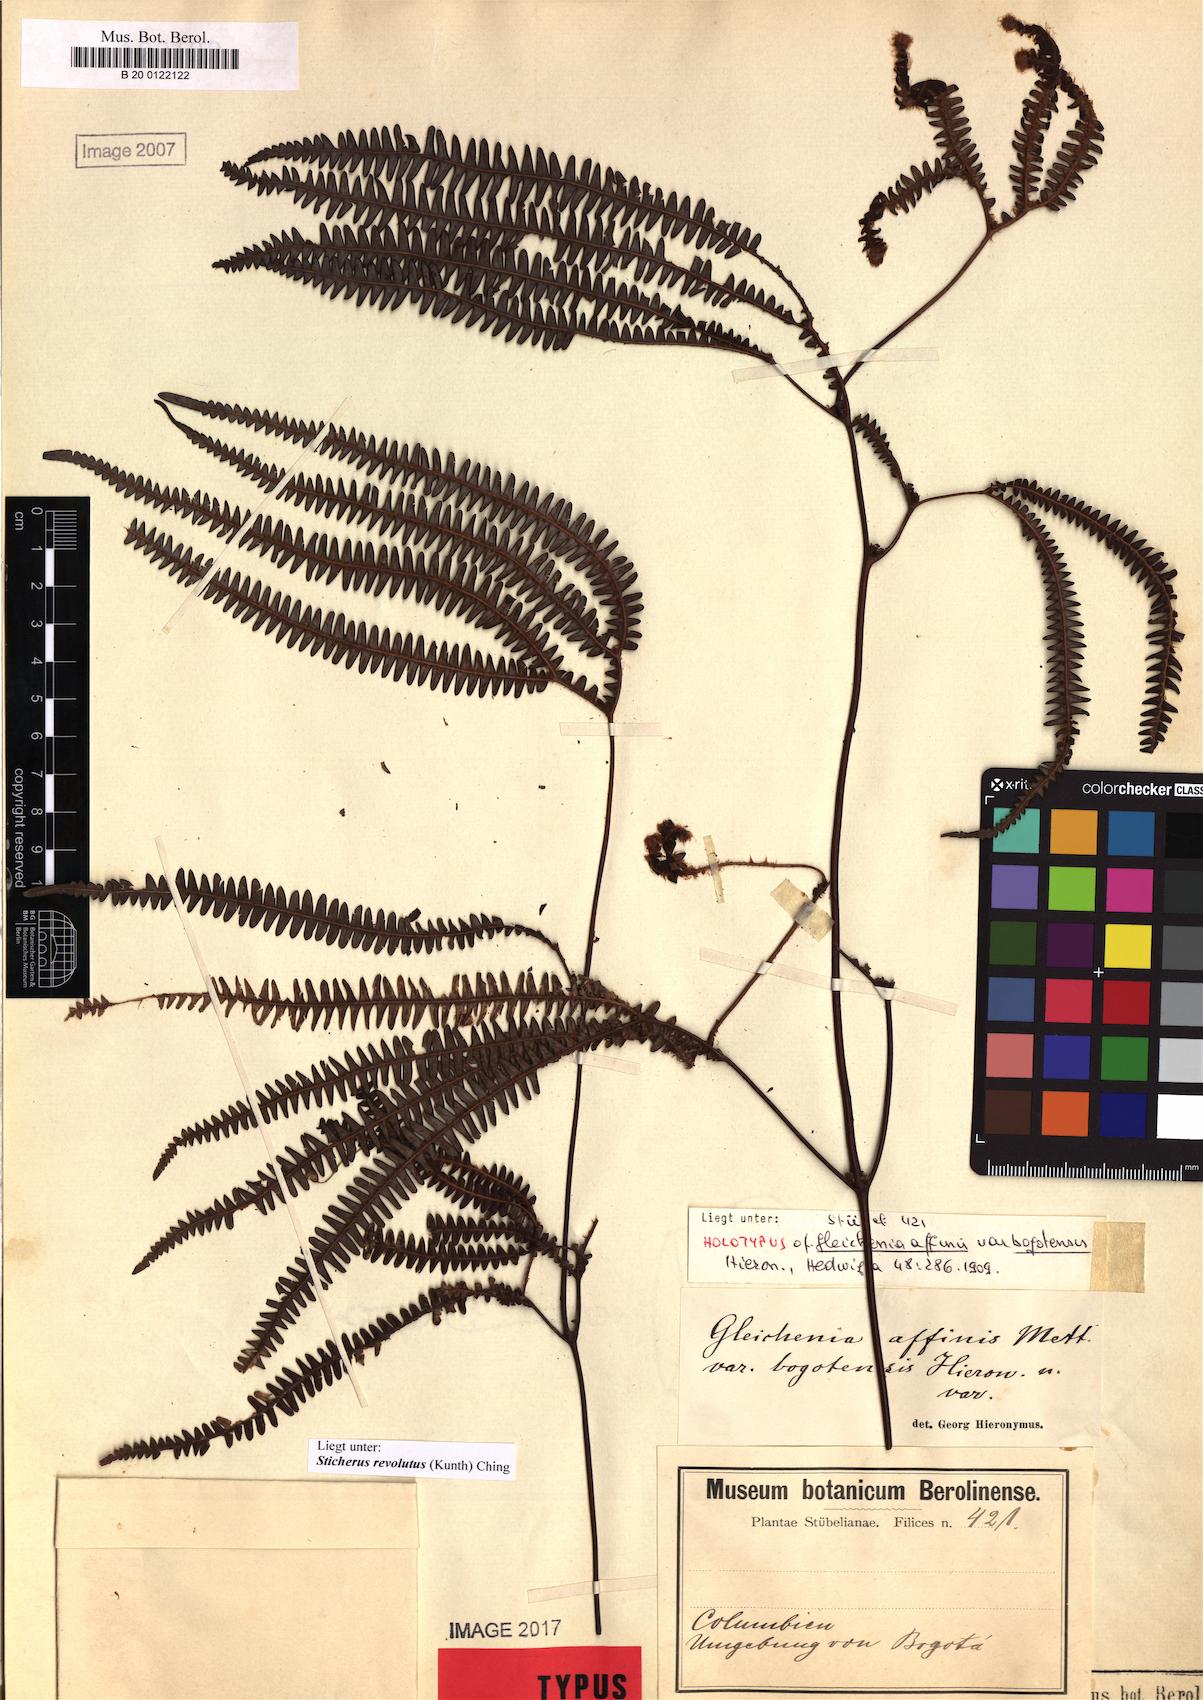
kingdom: Plantae
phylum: Tracheophyta
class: Polypodiopsida
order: Gleicheniales
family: Gleicheniaceae
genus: Sticherus
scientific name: Sticherus revolutus
